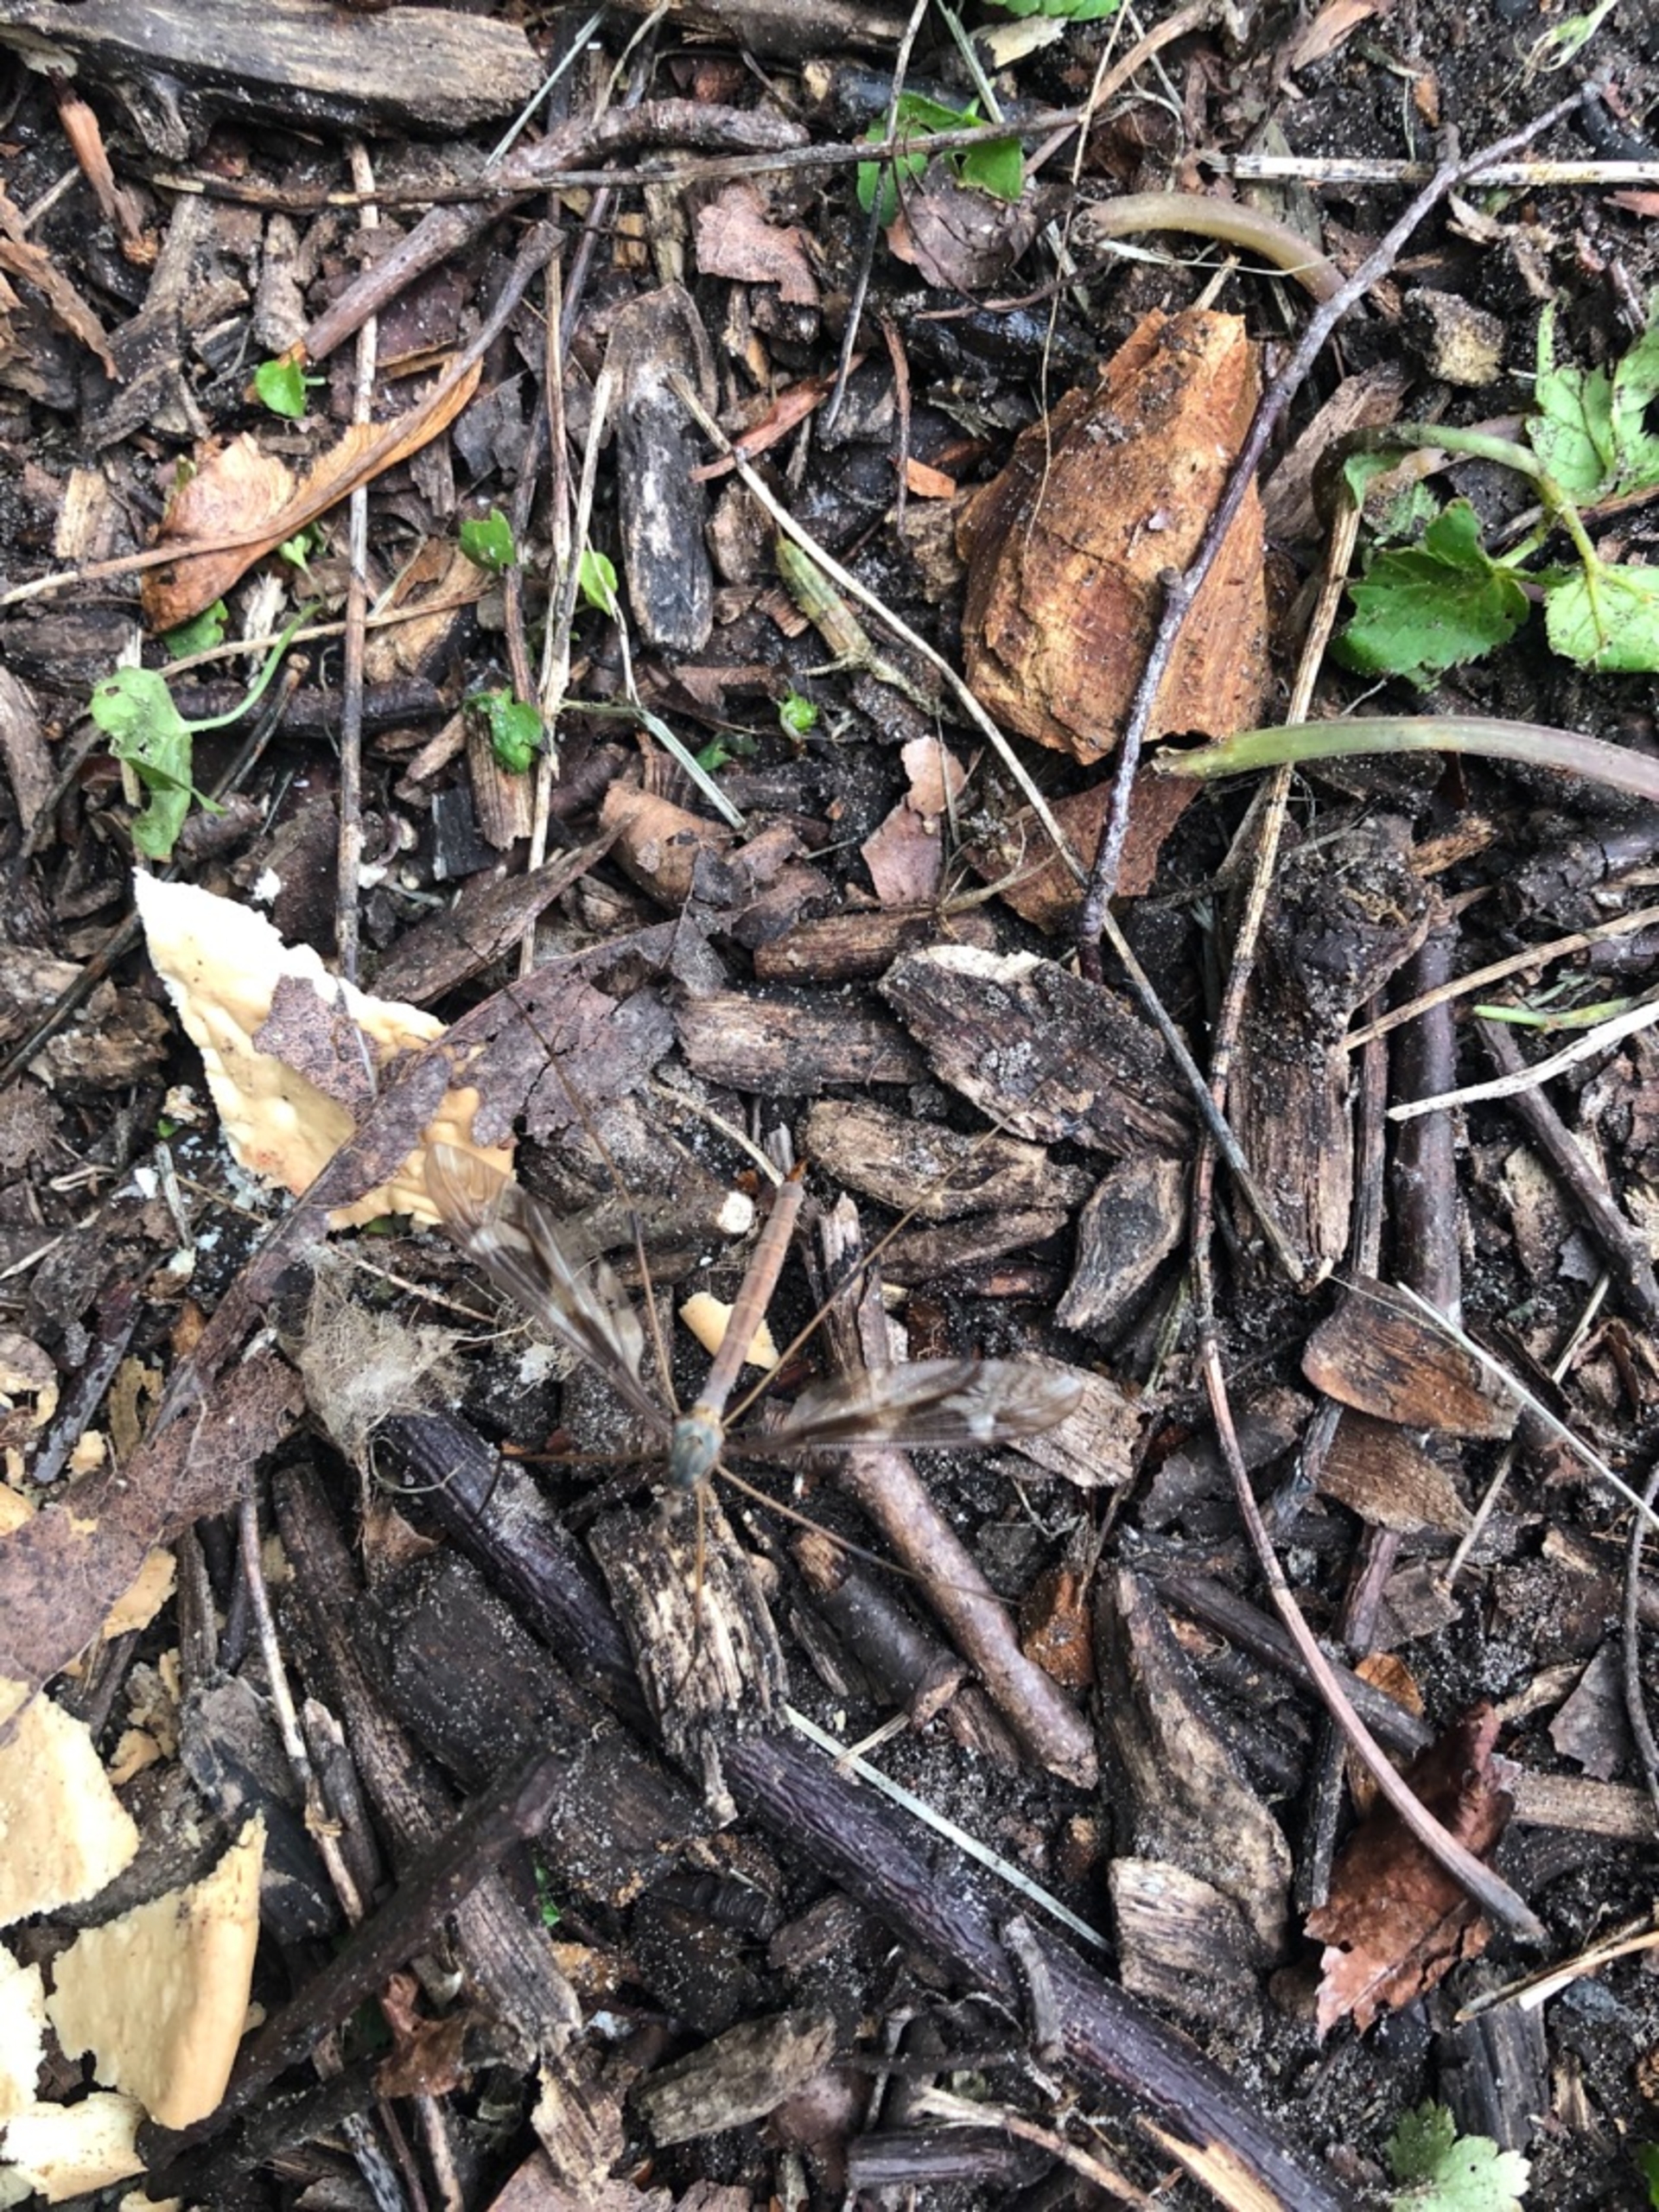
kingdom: Animalia
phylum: Arthropoda
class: Insecta
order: Diptera
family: Tipulidae
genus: Tipula
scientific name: Tipula maxima
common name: Kæmpestankelben
